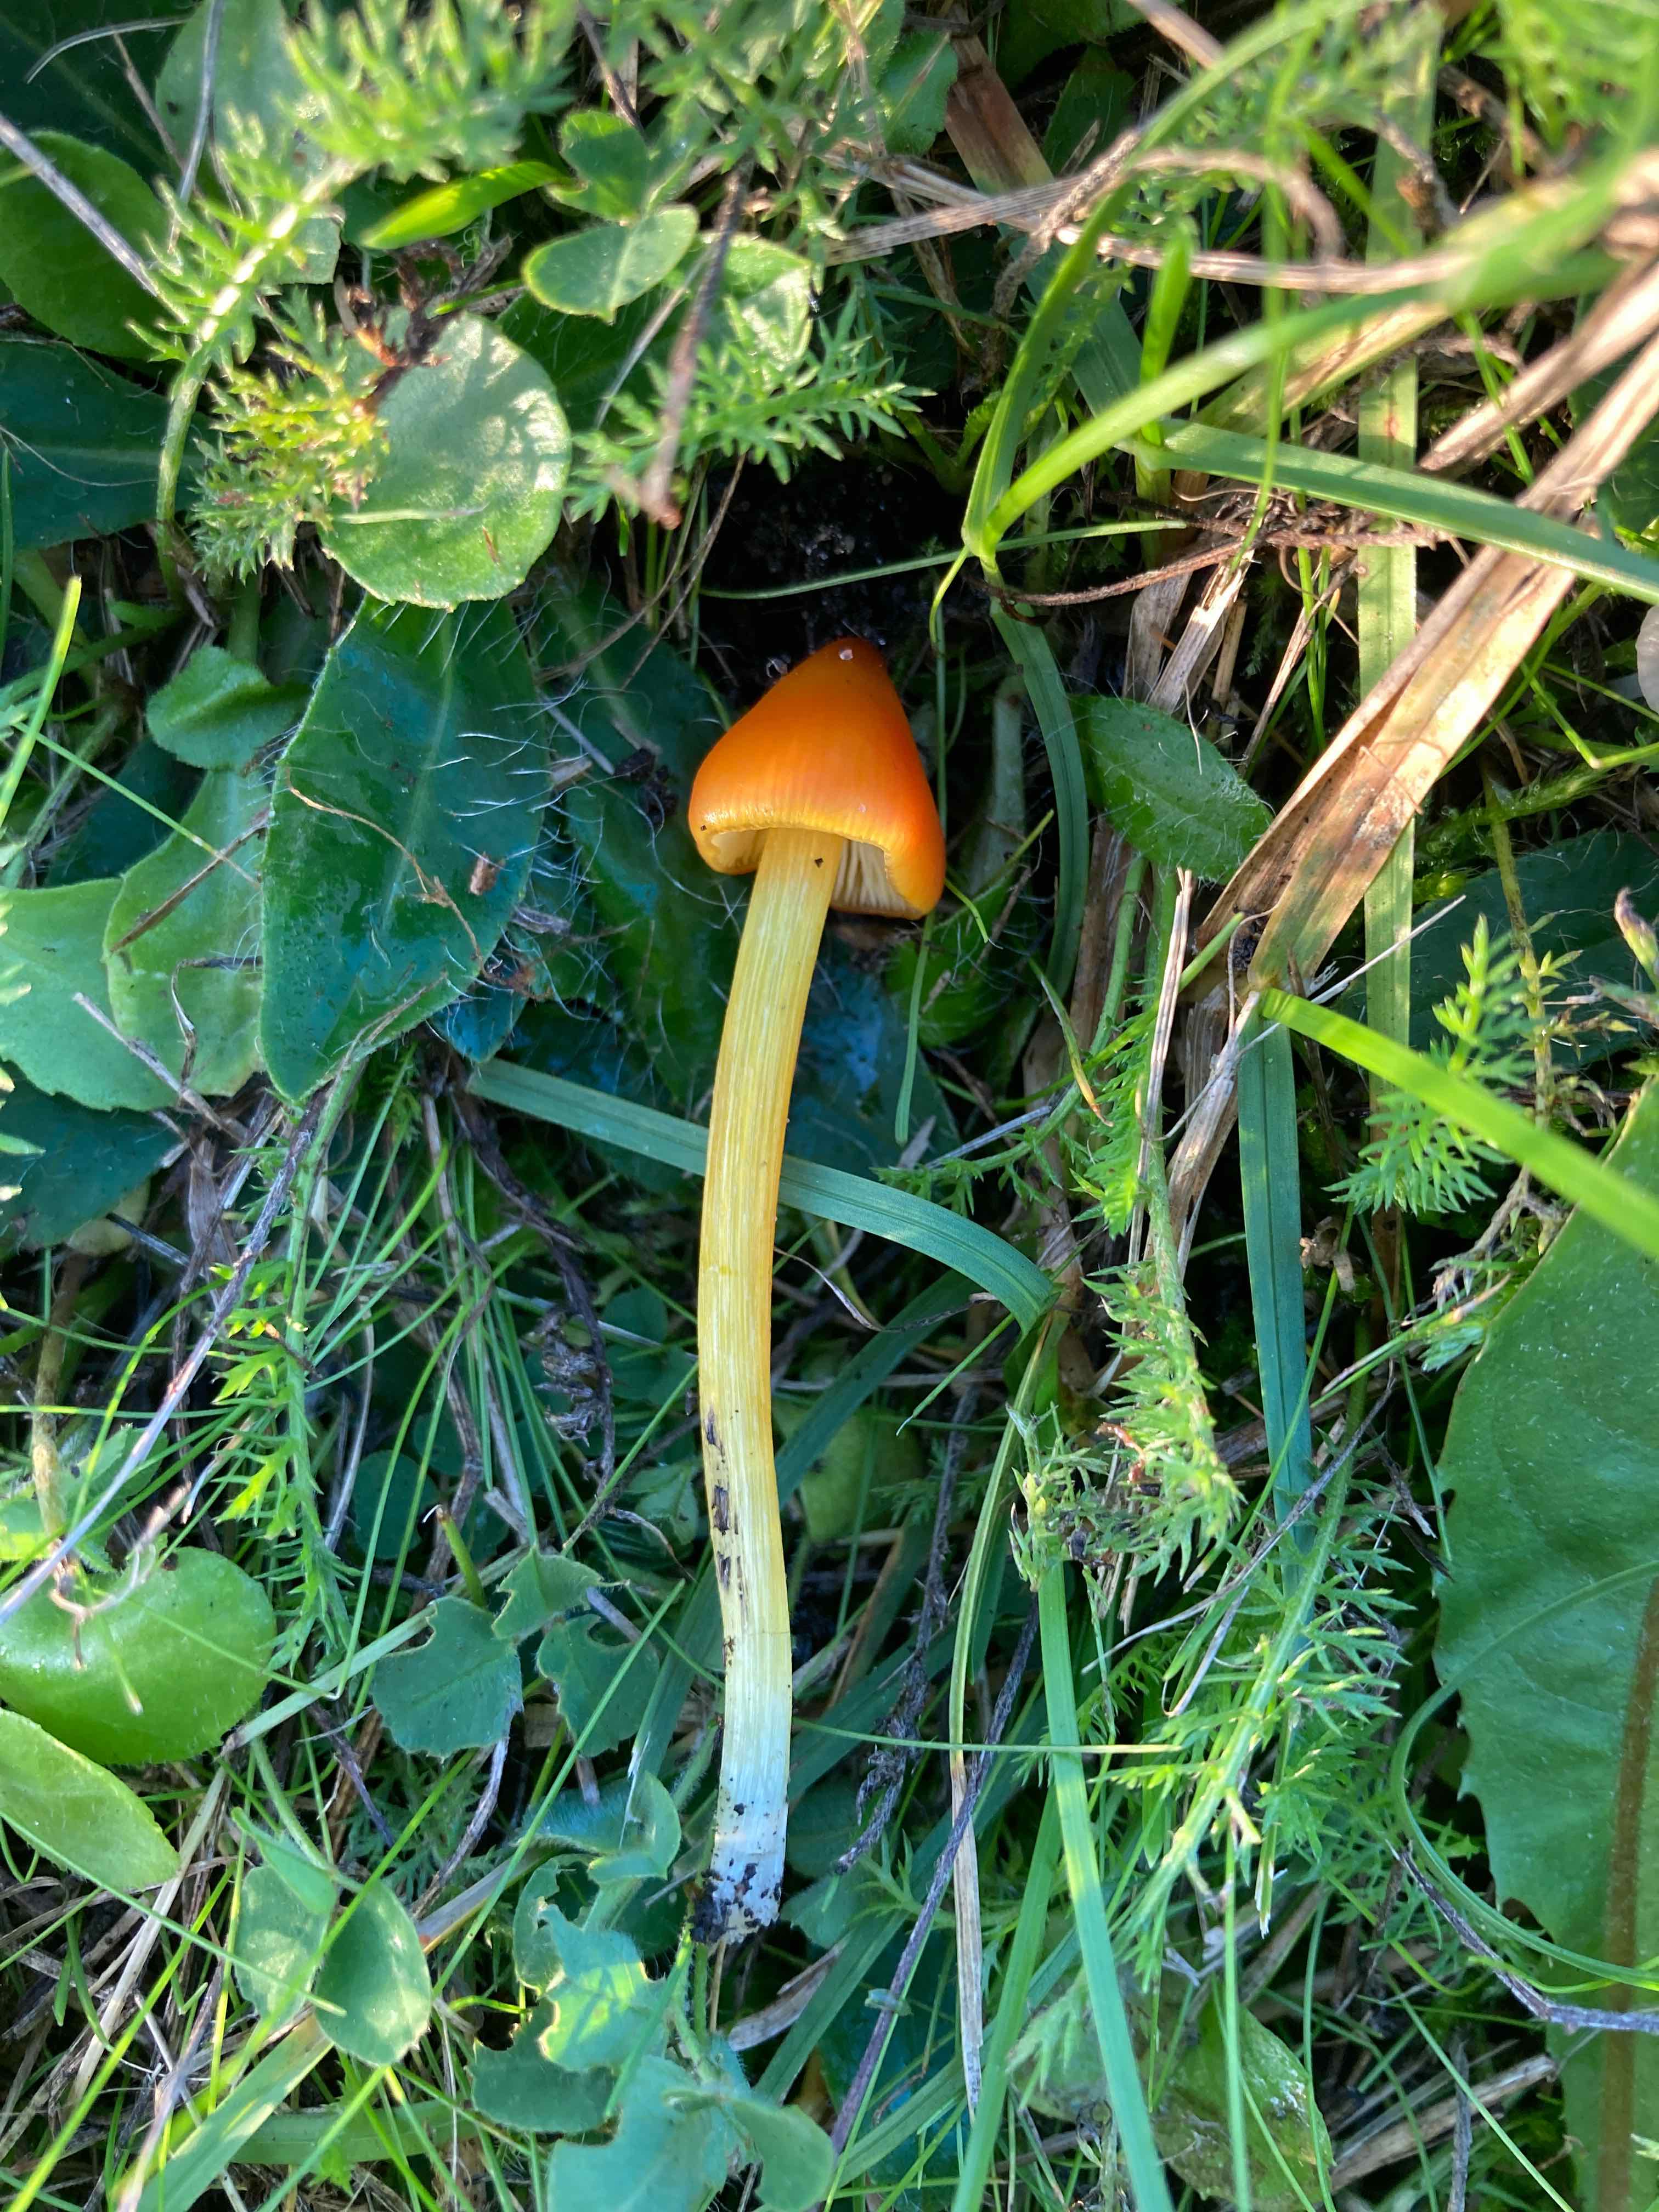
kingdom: Fungi
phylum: Basidiomycota
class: Agaricomycetes
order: Agaricales
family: Hygrophoraceae
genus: Hygrocybe
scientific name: Hygrocybe conica
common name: kegle-vokshat
